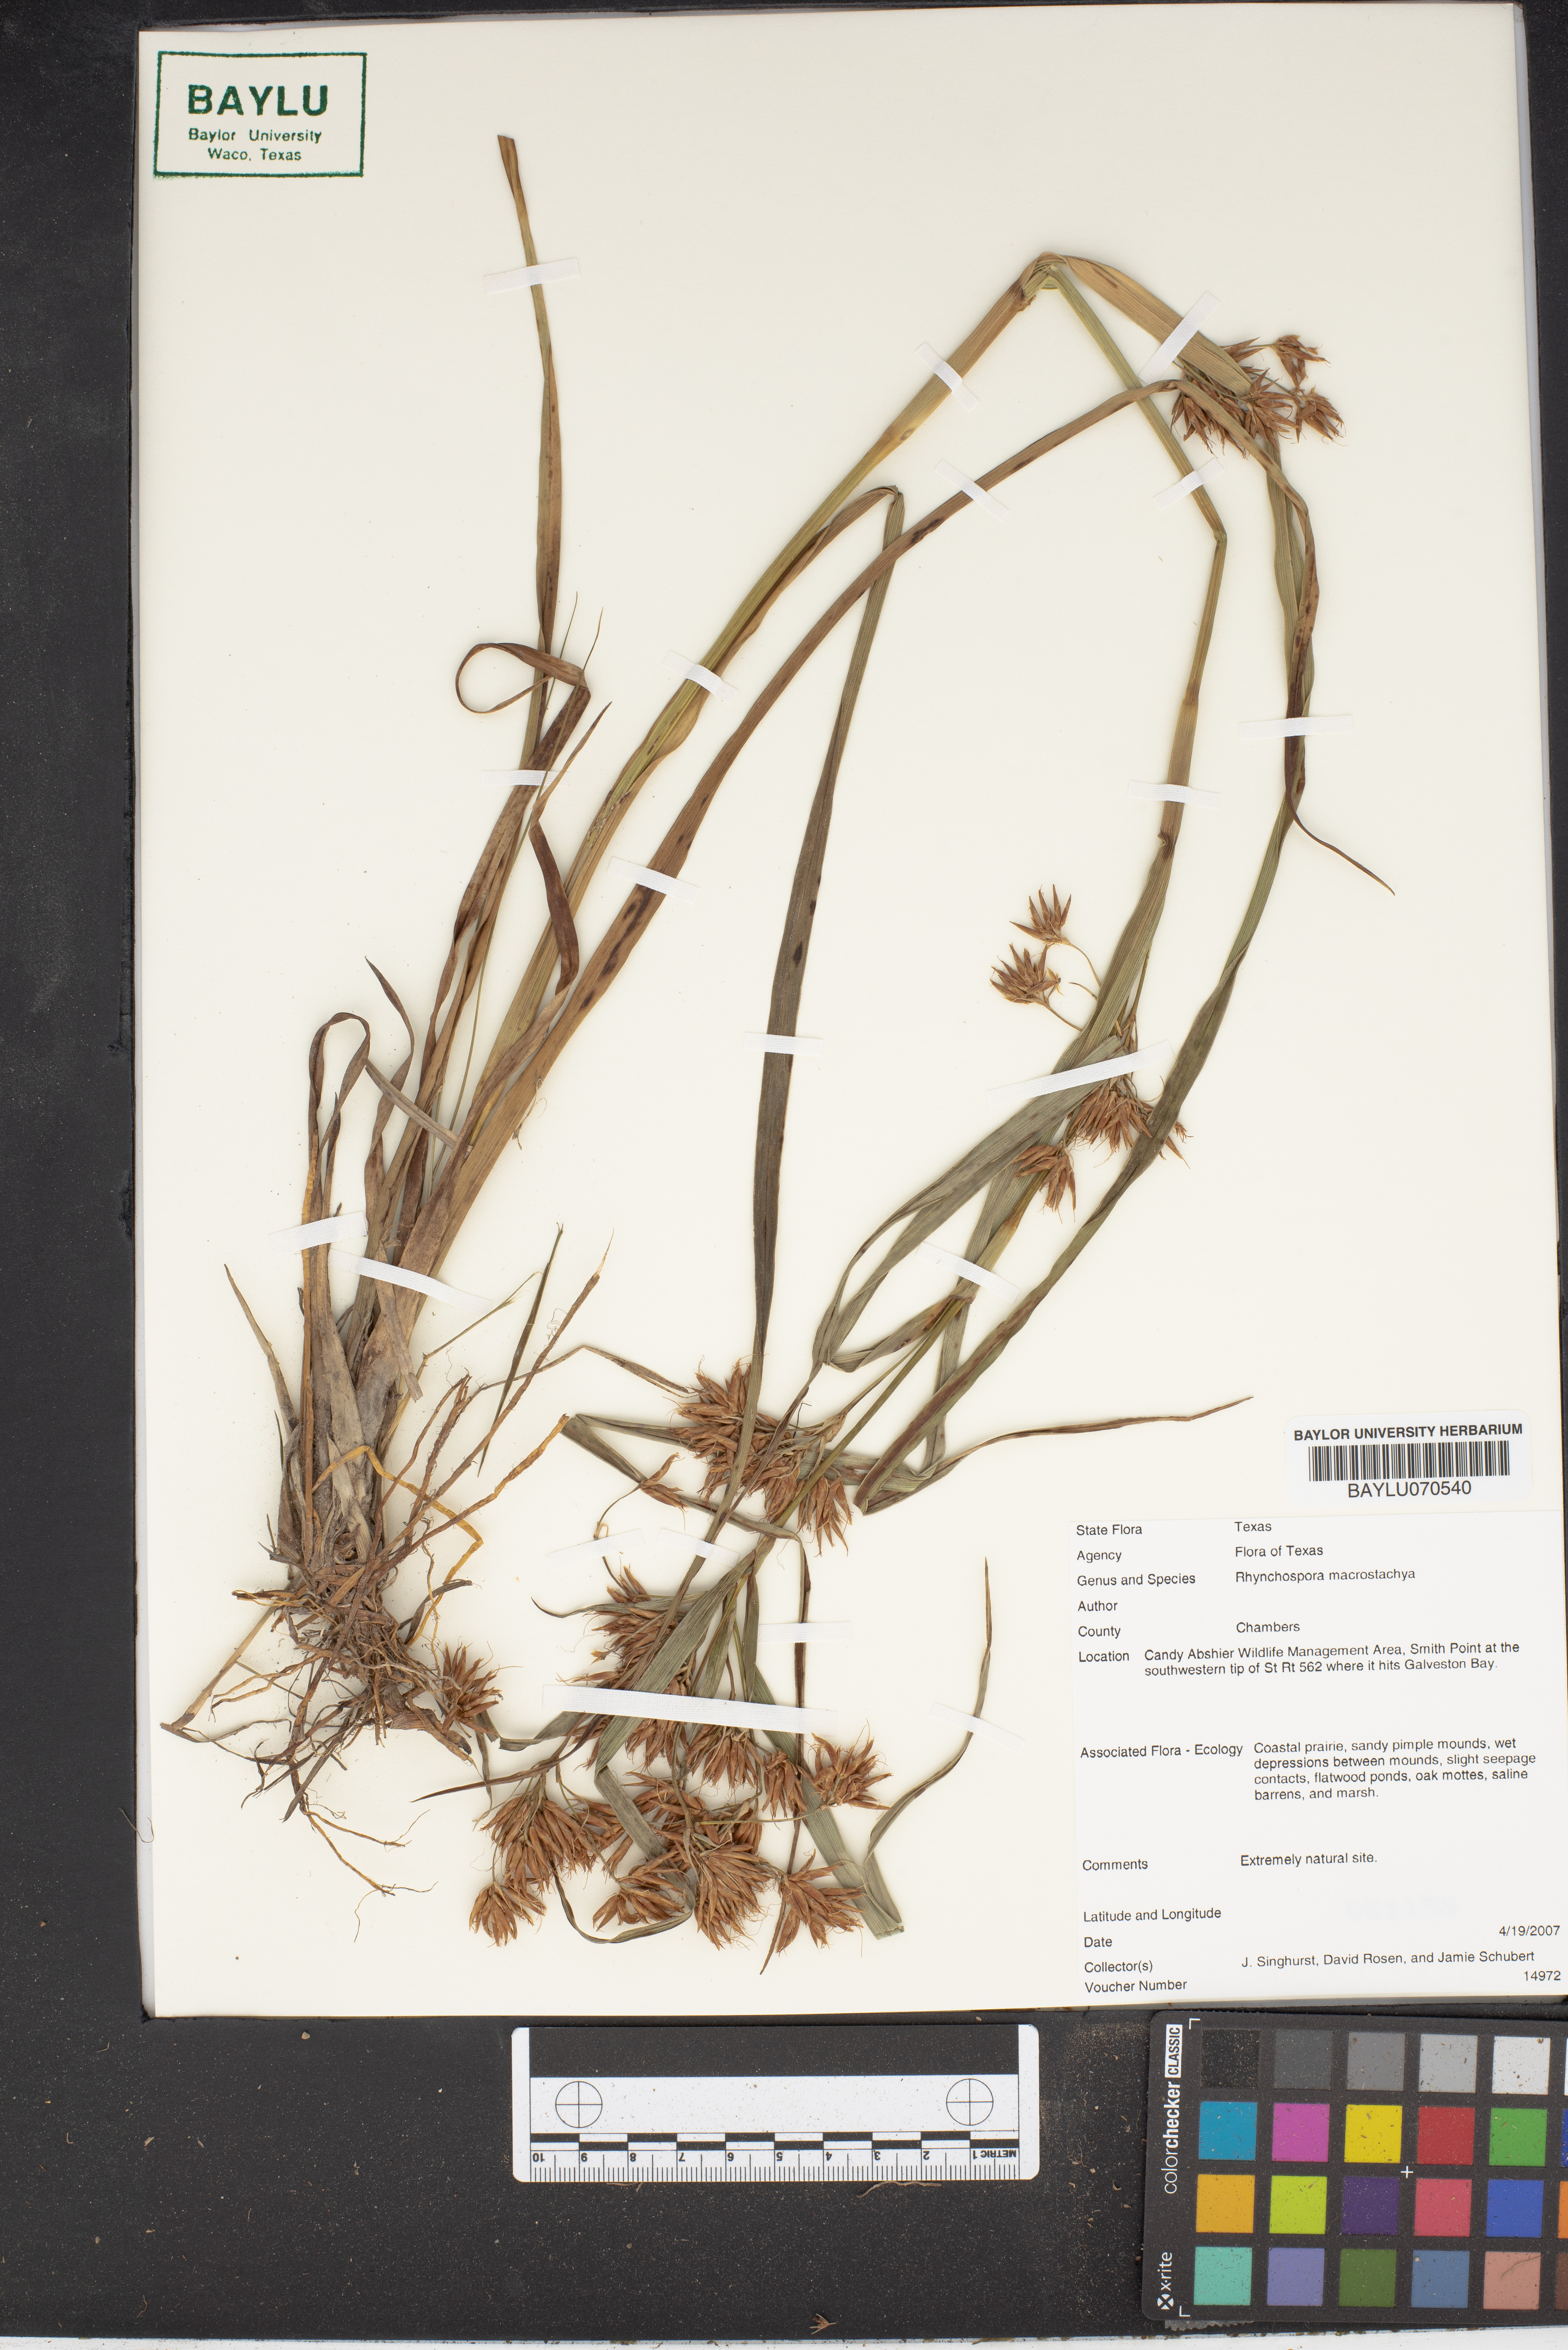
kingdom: Plantae
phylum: Tracheophyta
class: Liliopsida
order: Poales
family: Cyperaceae
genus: Rhynchospora
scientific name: Rhynchospora macrostachya
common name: Tall beakrush
